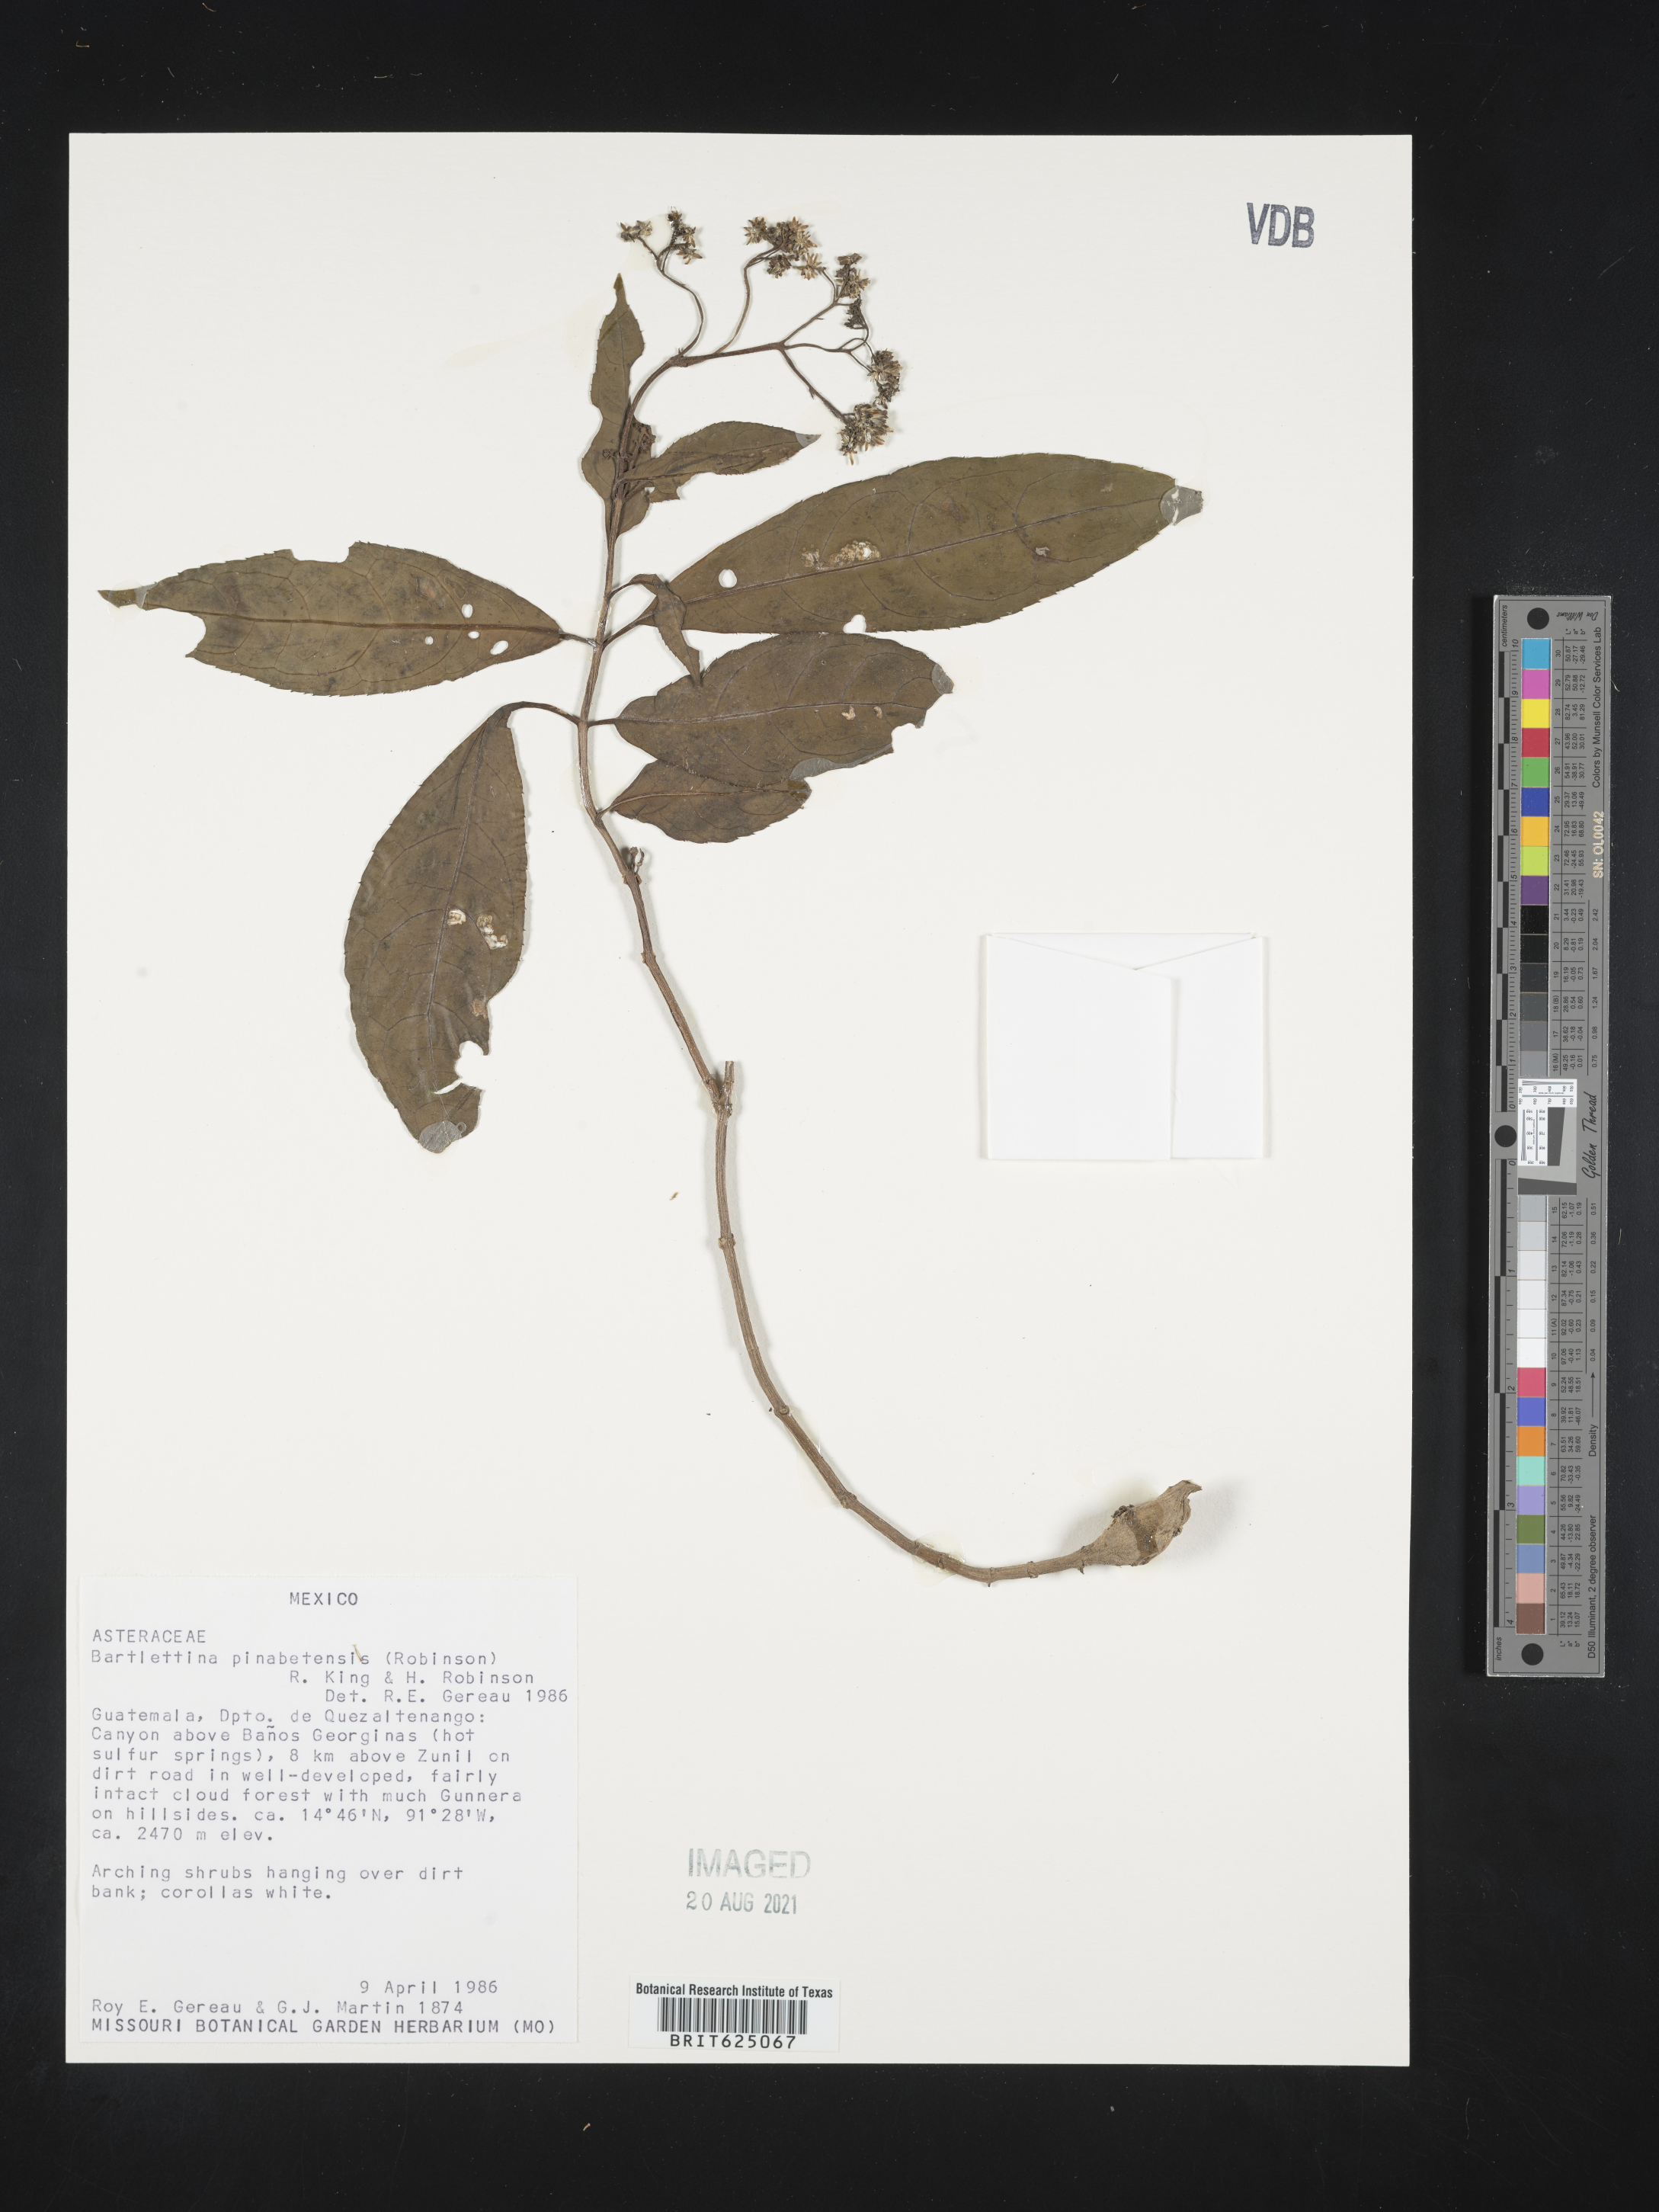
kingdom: Plantae
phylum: Tracheophyta
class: Magnoliopsida
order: Asterales
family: Asteraceae
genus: Bartlettina
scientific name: Bartlettina
